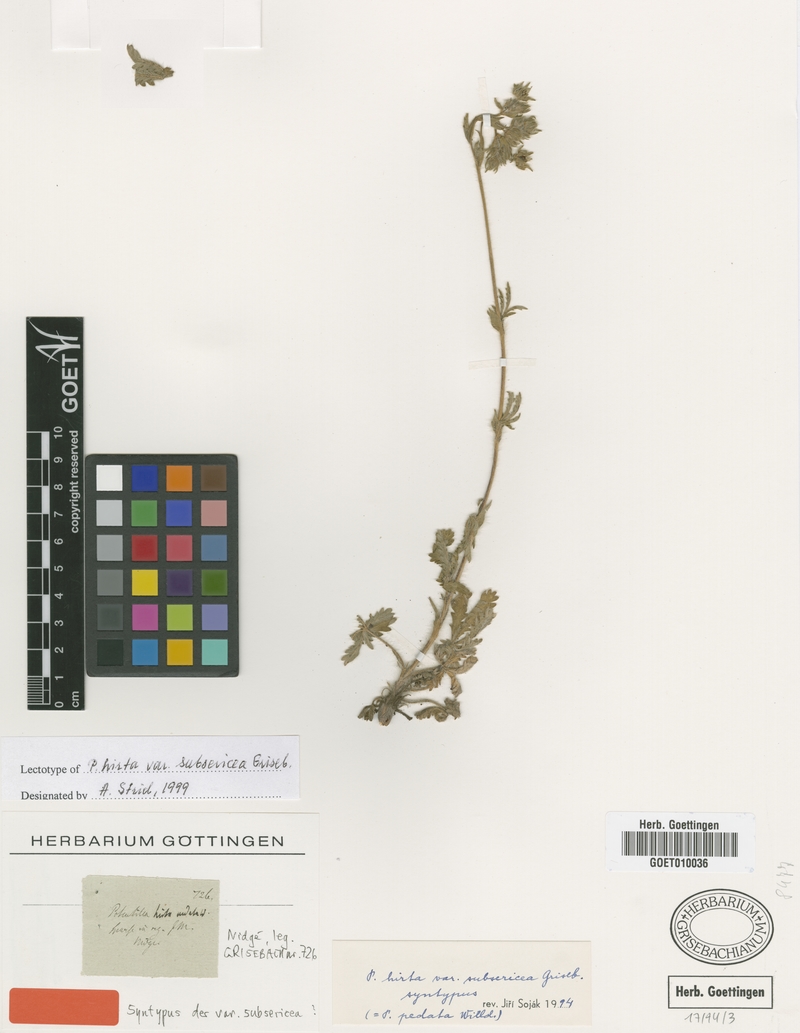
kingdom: Plantae
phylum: Tracheophyta
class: Magnoliopsida
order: Rosales
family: Rosaceae
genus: Potentilla
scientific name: Potentilla pedata
